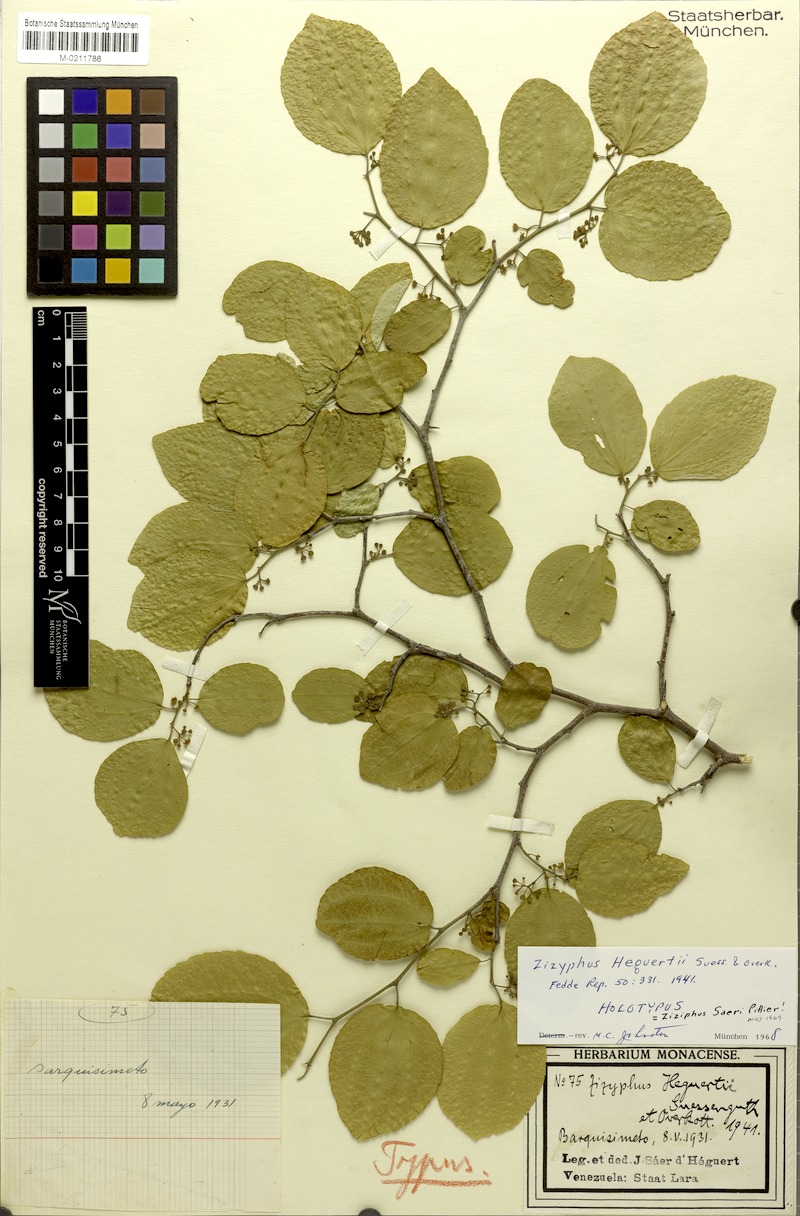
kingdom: Plantae
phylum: Tracheophyta
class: Magnoliopsida
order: Rosales
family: Rhamnaceae
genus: Ziziphus
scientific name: Ziziphus heguertii
